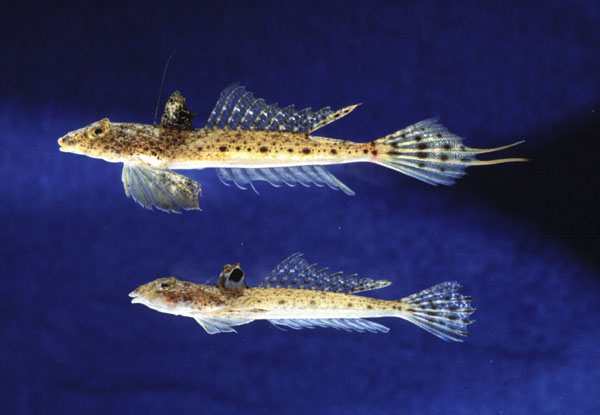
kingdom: Animalia
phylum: Chordata
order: Perciformes
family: Callionymidae
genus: Callionymus
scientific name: Callionymus filamentosus
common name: Blotchfin dragonet
